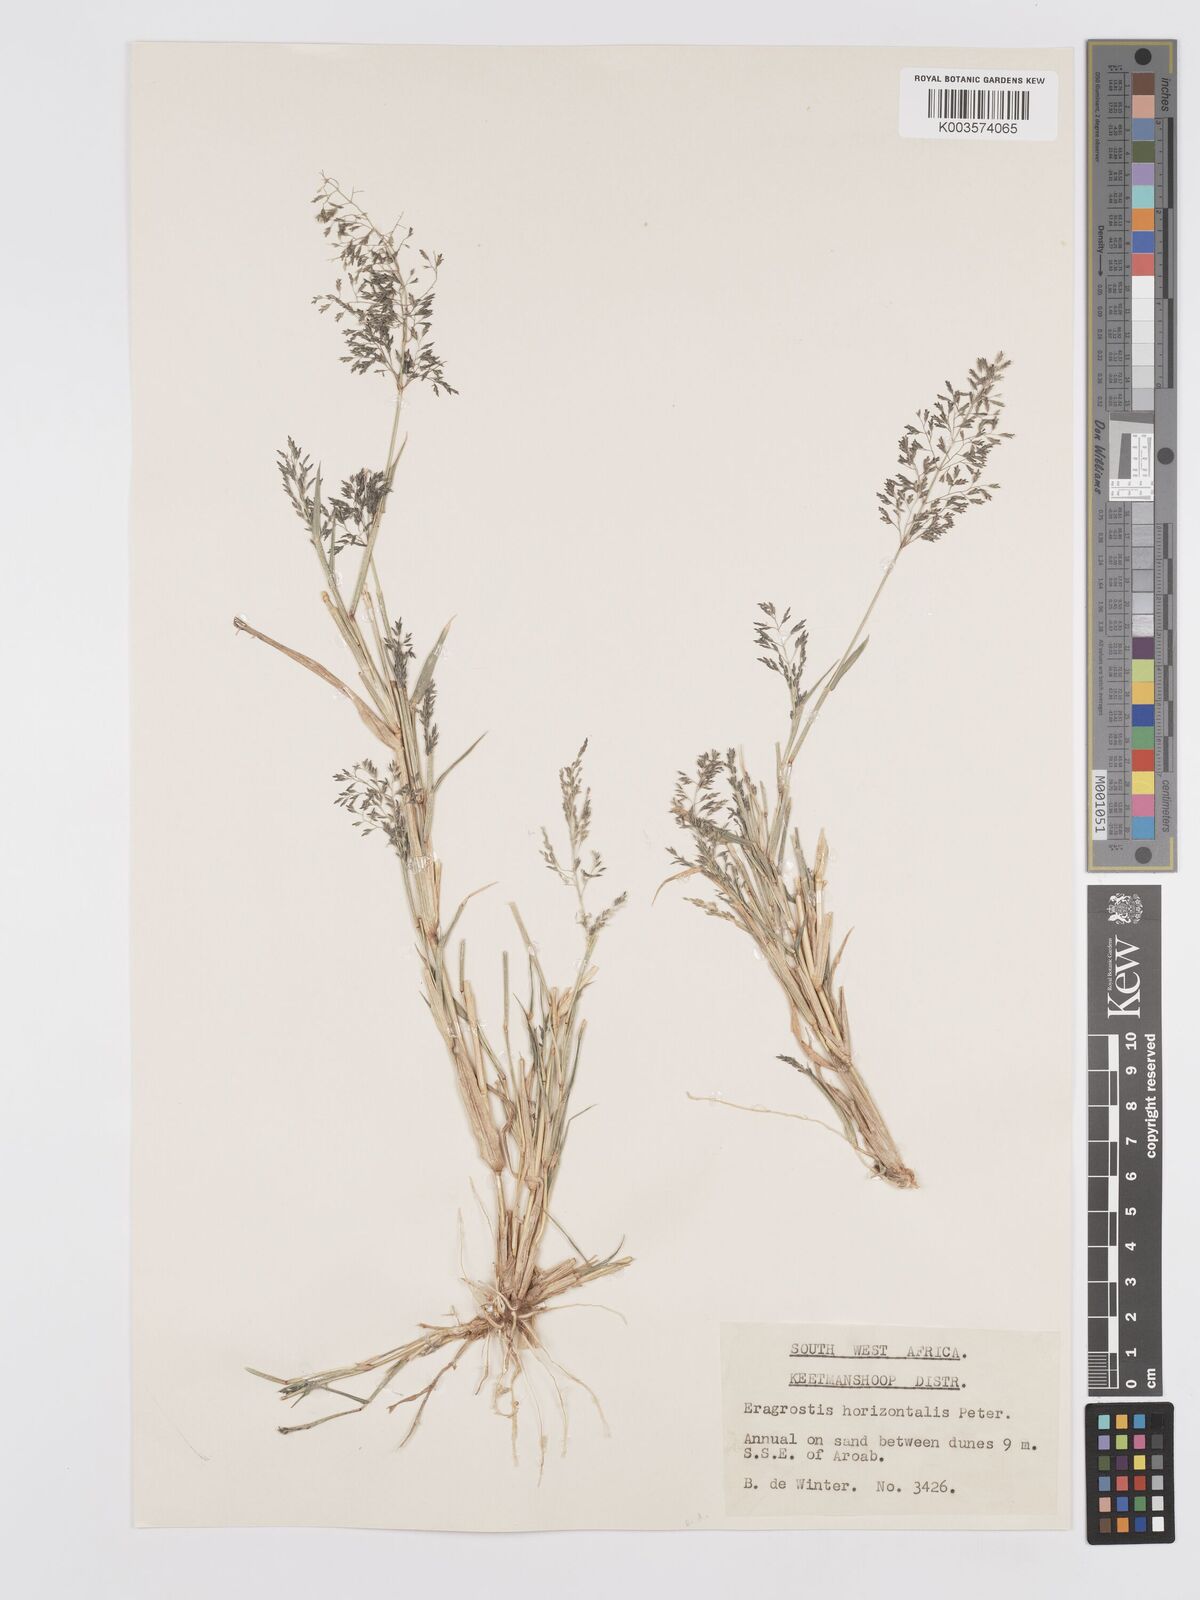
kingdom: Plantae
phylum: Tracheophyta
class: Liliopsida
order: Poales
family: Poaceae
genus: Eragrostis
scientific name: Eragrostis cylindriflora
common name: Cylinderflower lovegrass
